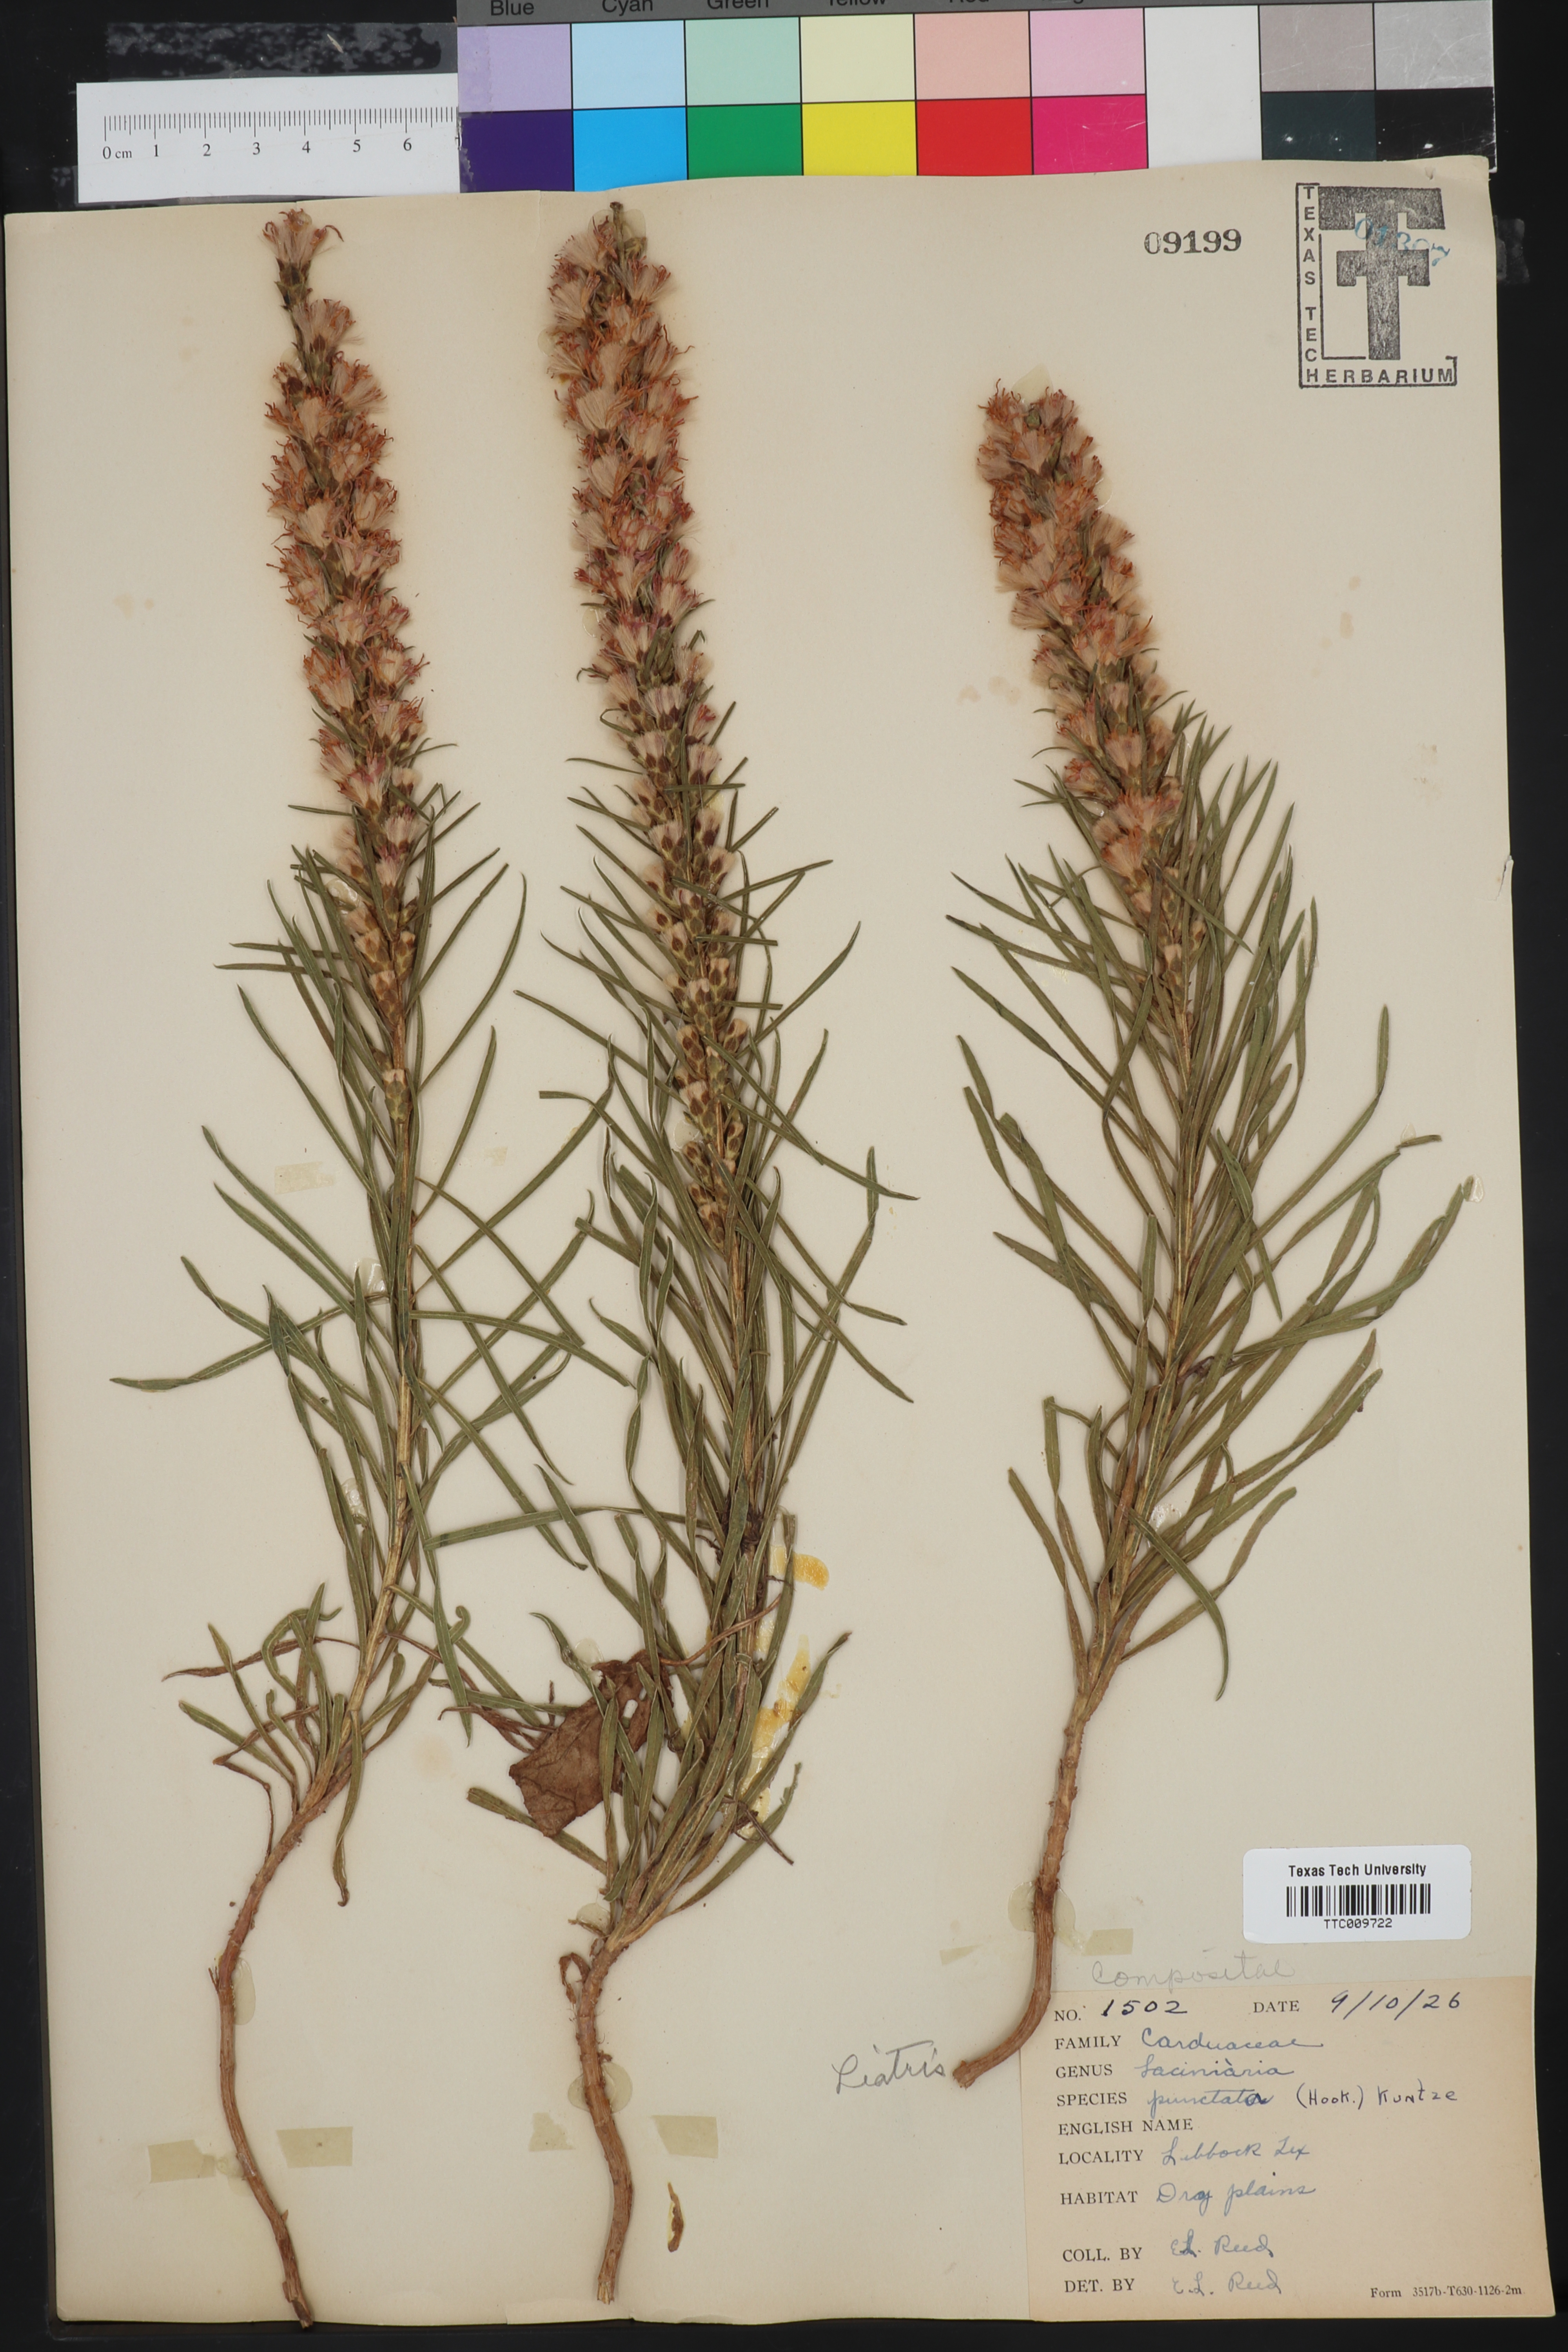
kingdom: Plantae
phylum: Tracheophyta
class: Magnoliopsida
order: Asterales
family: Asteraceae
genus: Liatris
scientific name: Liatris punctata
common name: Dotted gayfeather
